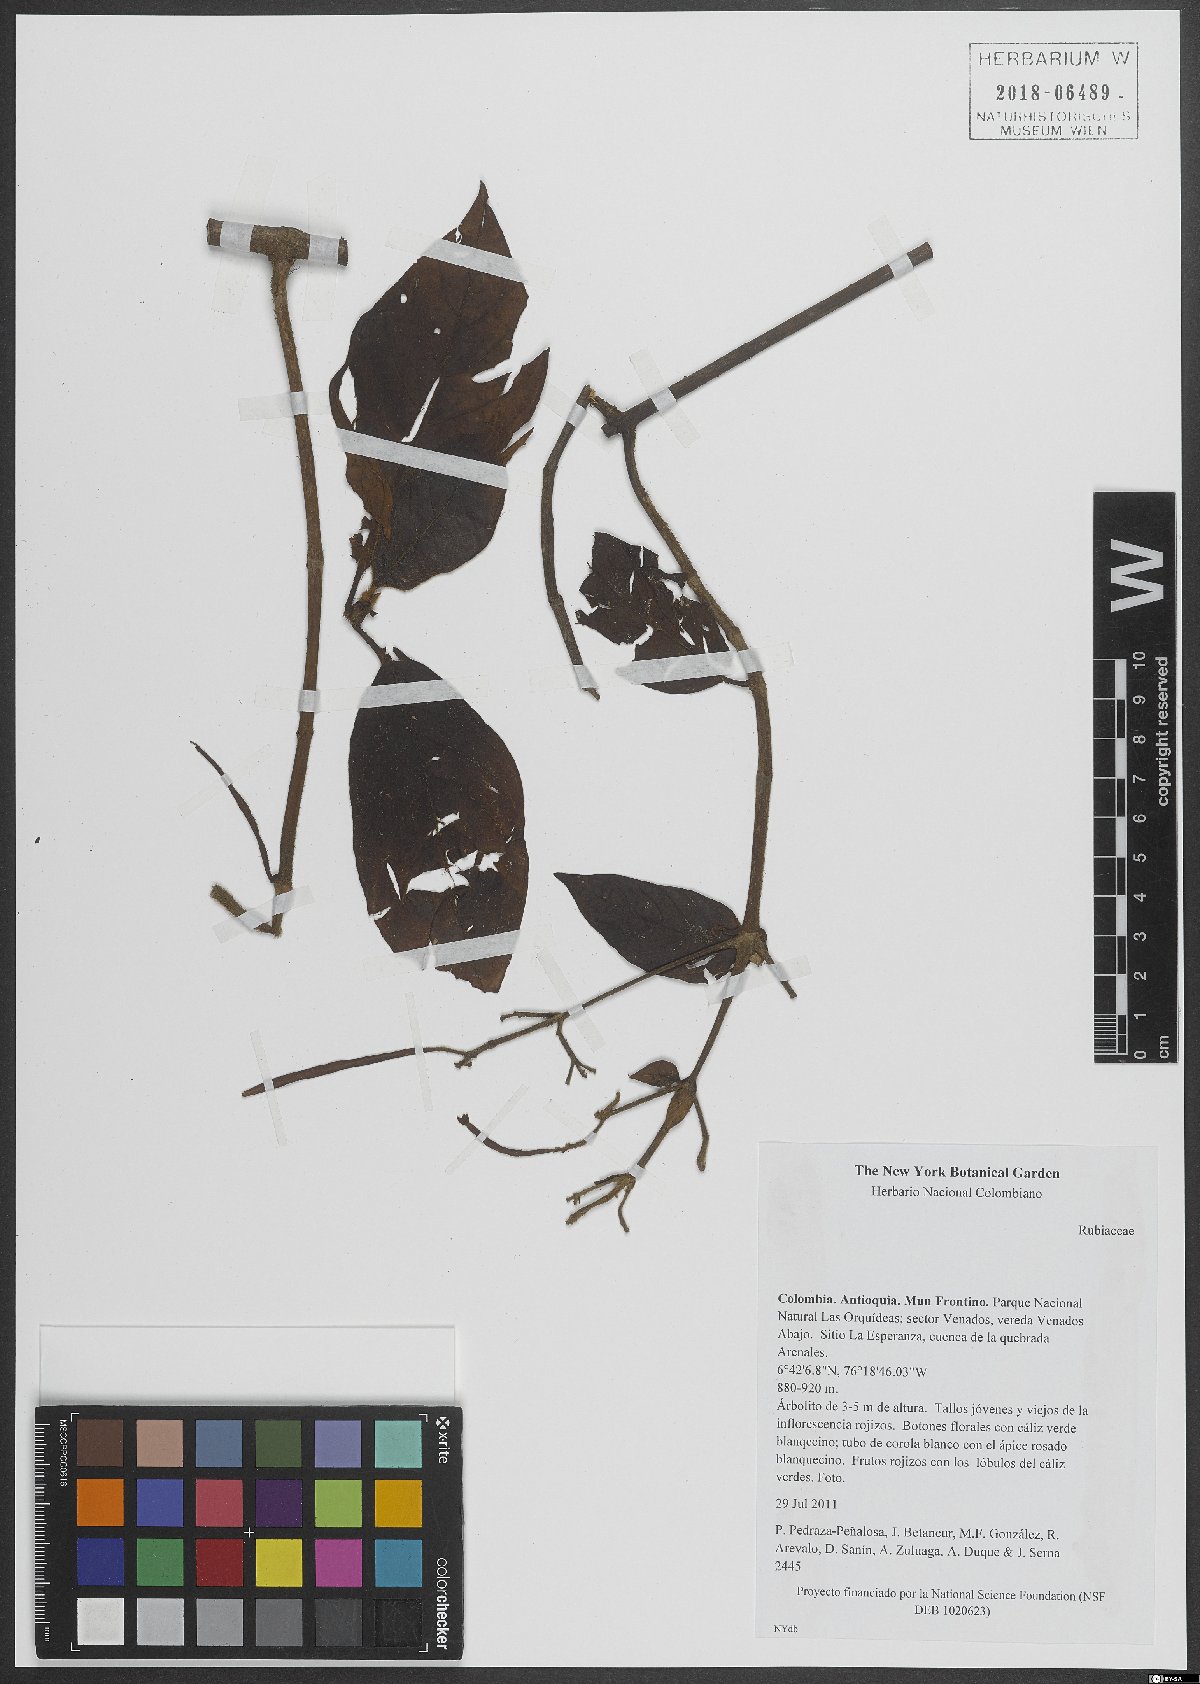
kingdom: Plantae
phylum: Tracheophyta
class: Magnoliopsida
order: Gentianales
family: Rubiaceae
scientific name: Rubiaceae
